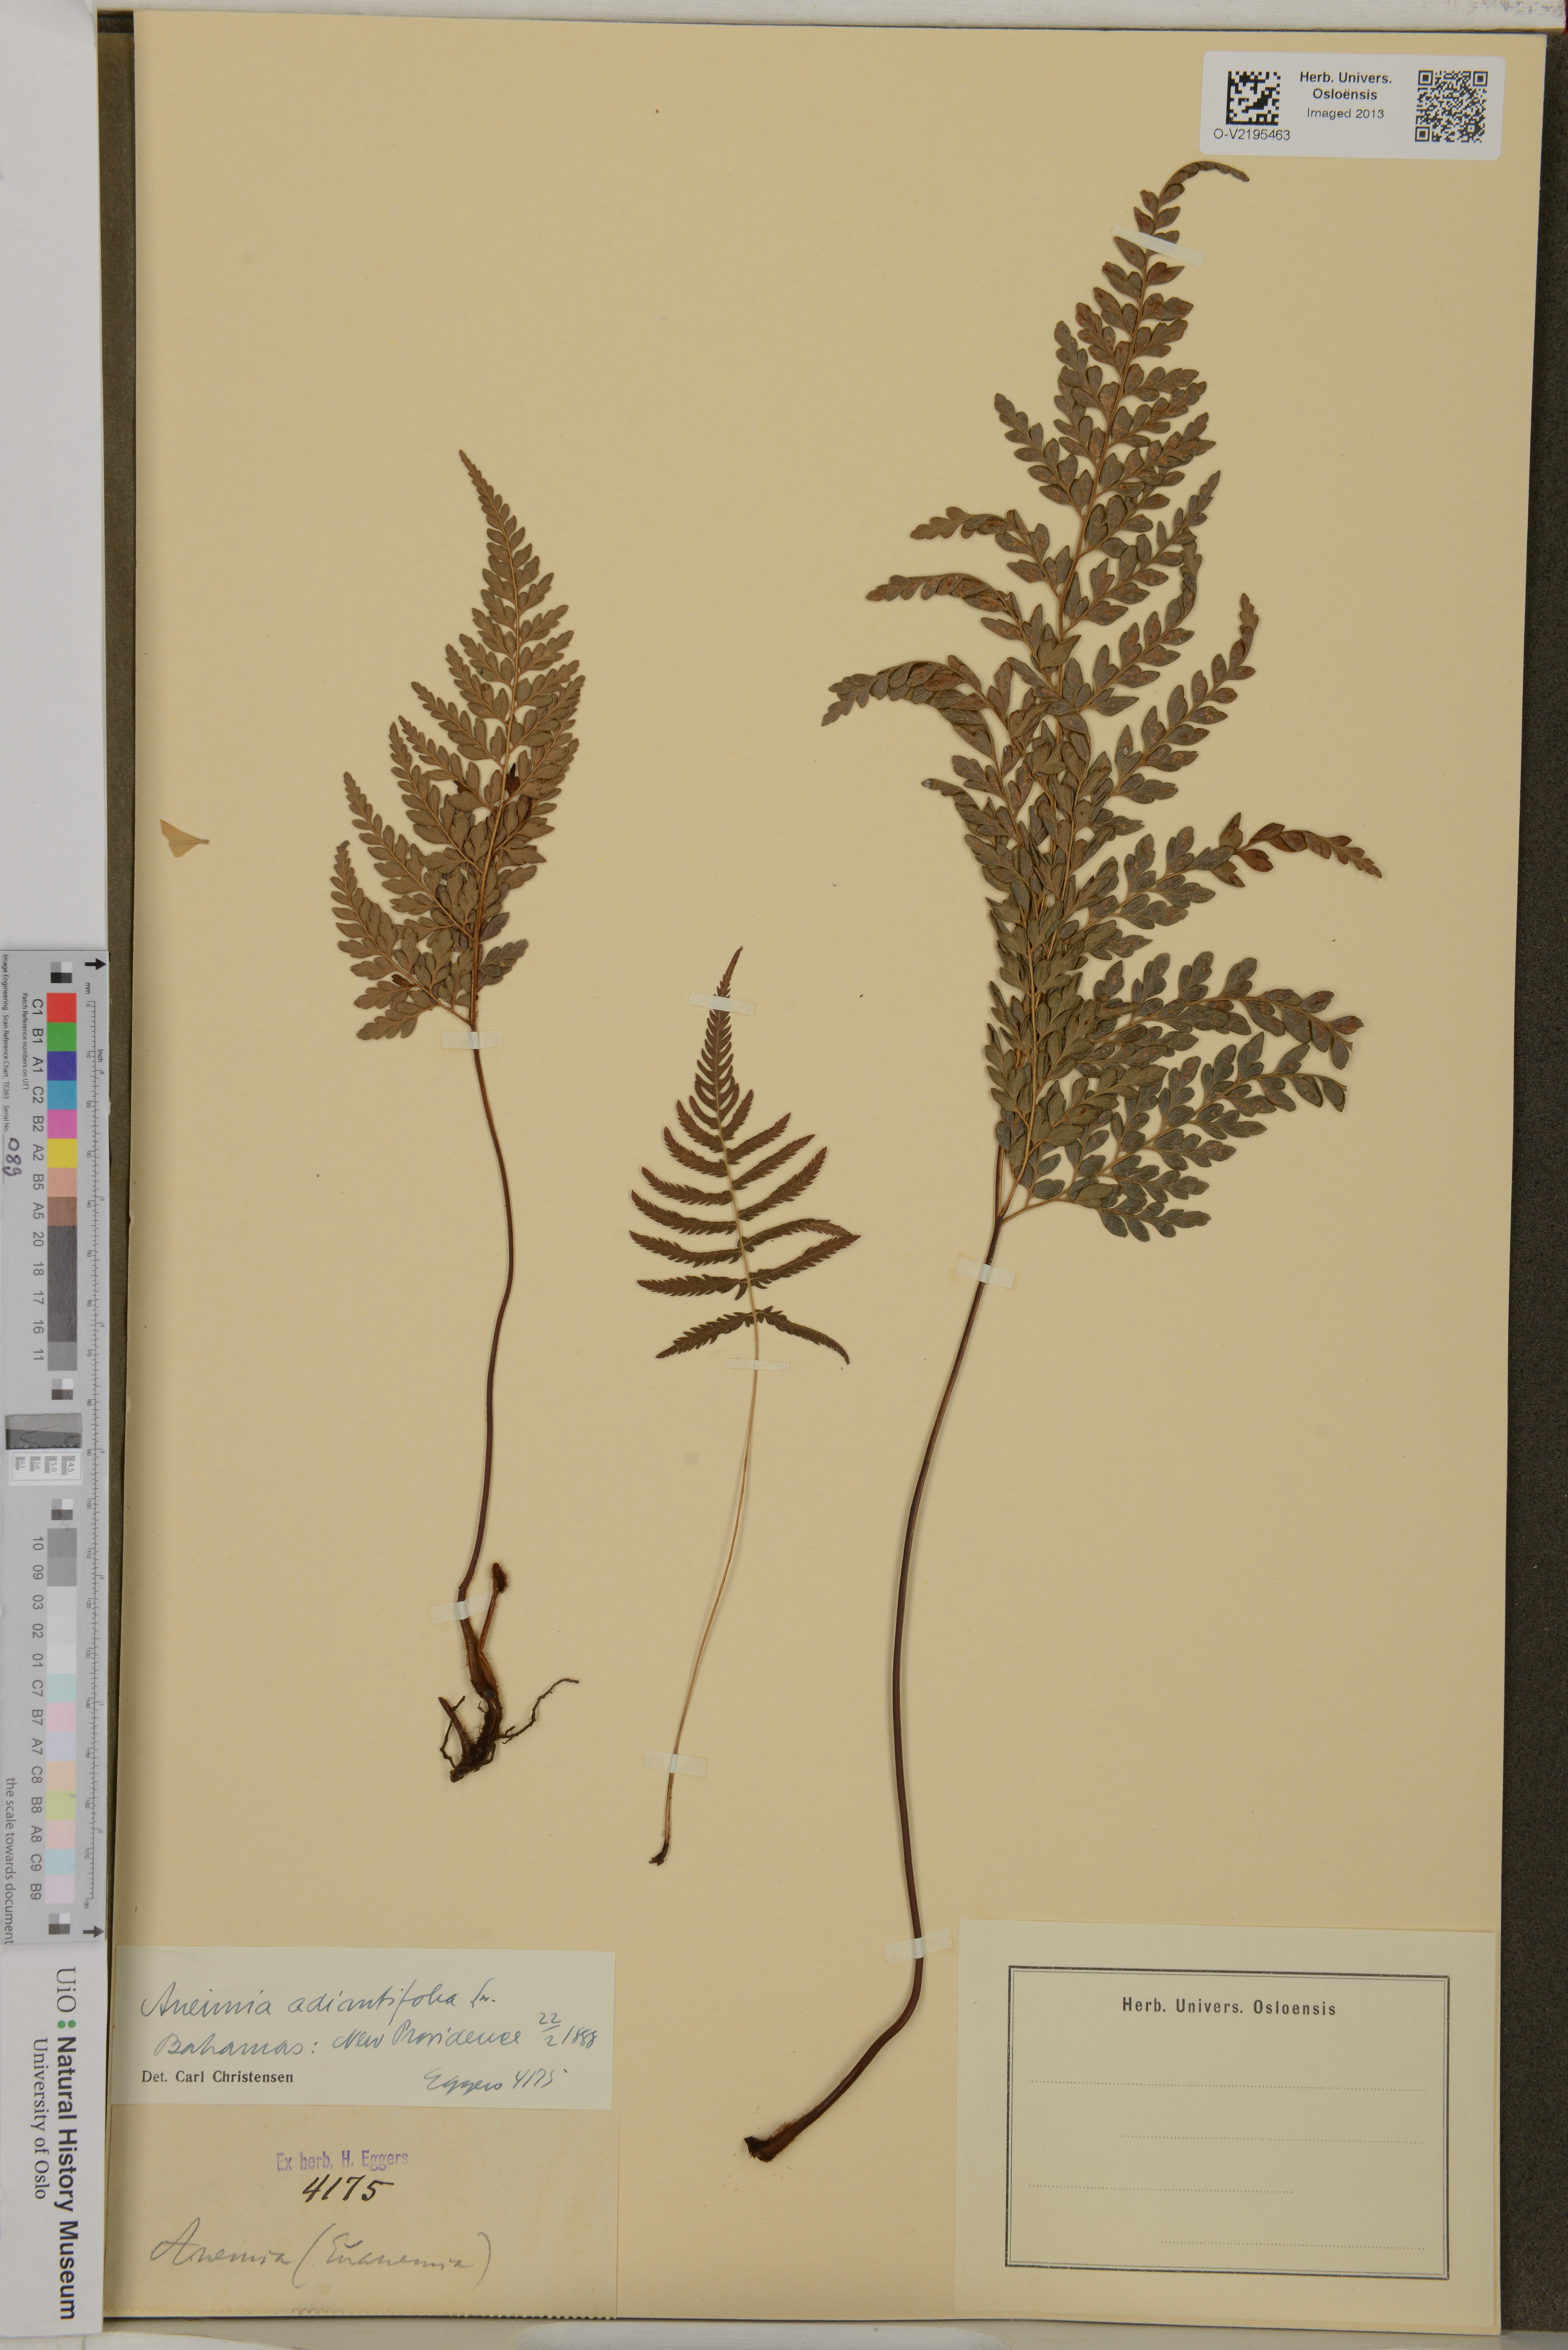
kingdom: Plantae
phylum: Tracheophyta
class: Polypodiopsida
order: Schizaeales
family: Anemiaceae
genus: Anemia
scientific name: Anemia adiantifolia
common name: Pine fern
